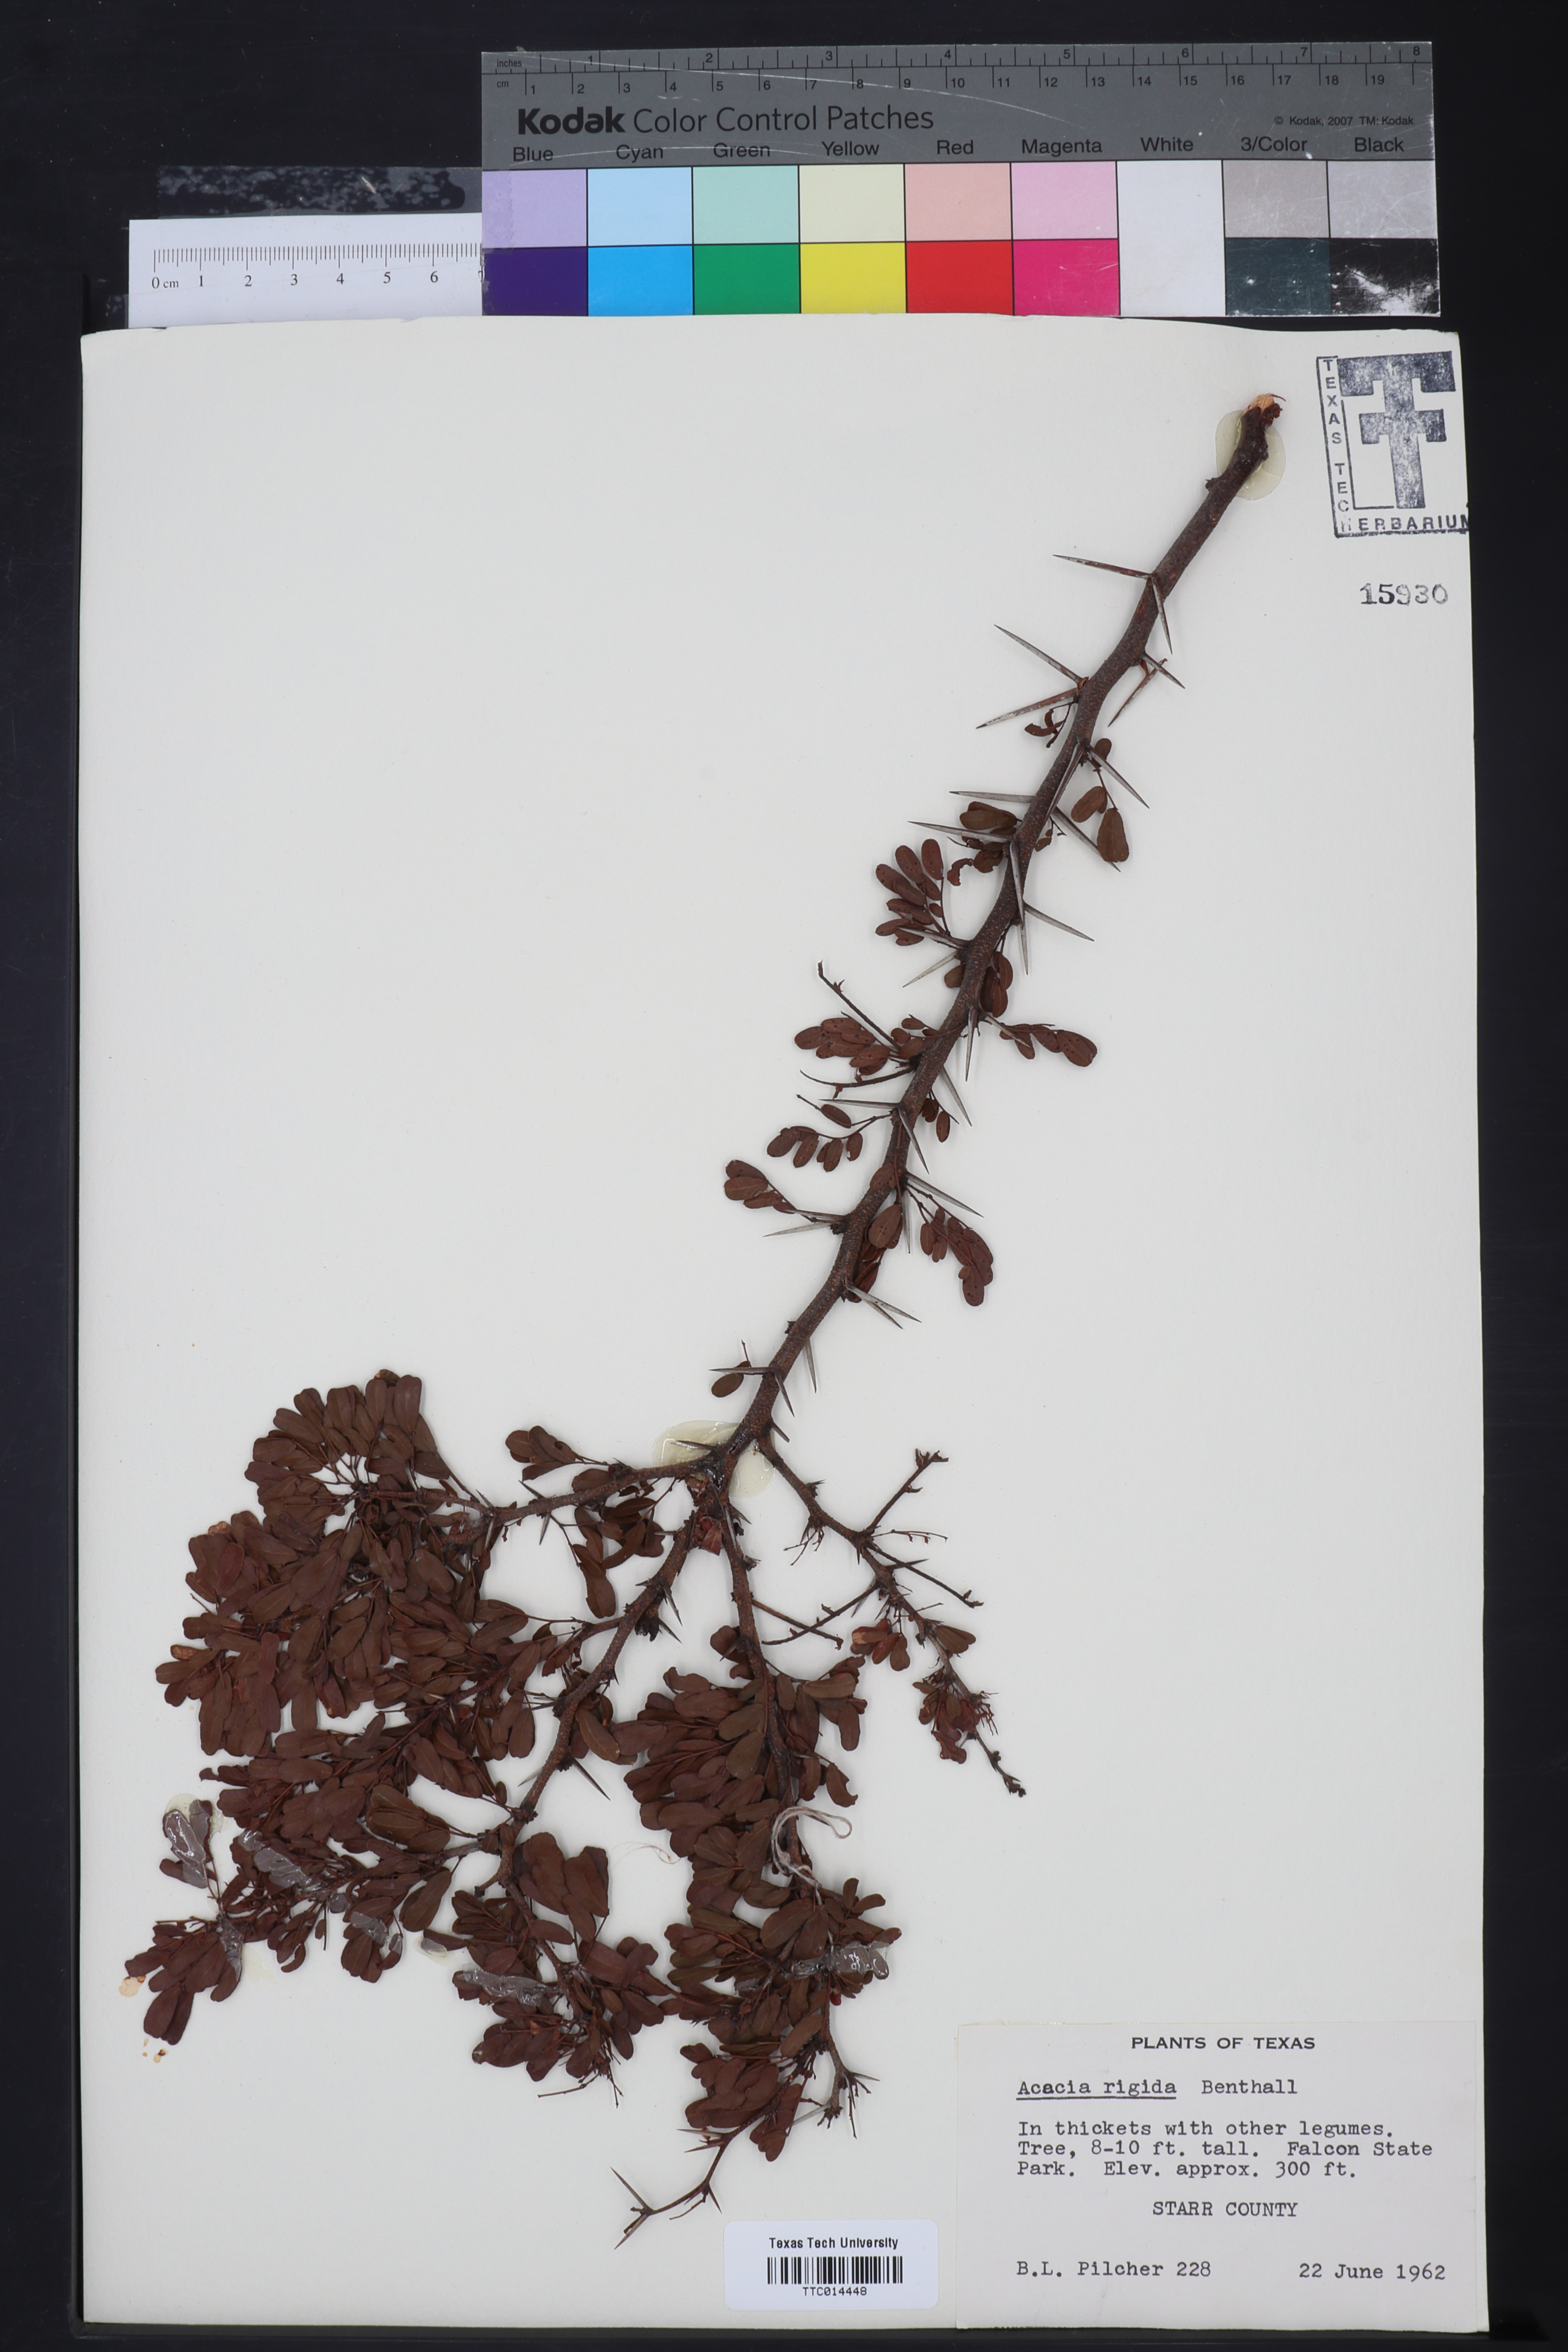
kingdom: Plantae
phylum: Tracheophyta
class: Magnoliopsida
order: Fabales
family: Fabaceae
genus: Acacia
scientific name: Acacia neorigida
